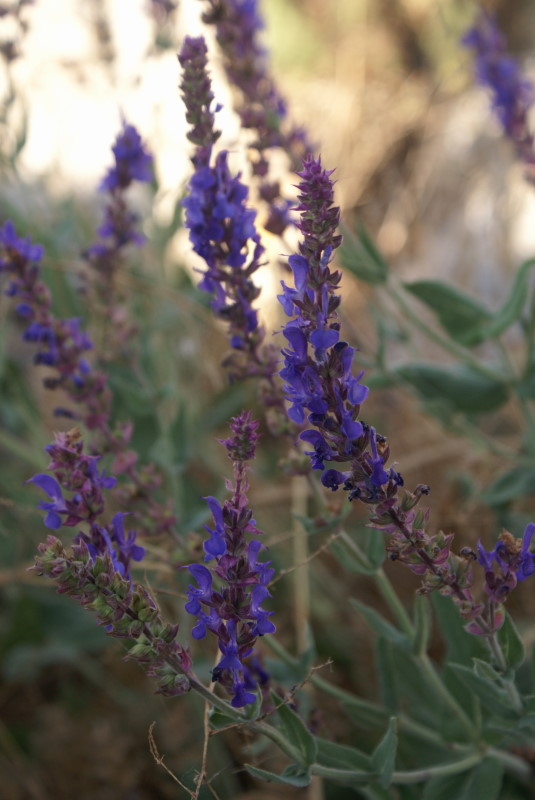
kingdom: Plantae
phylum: Tracheophyta
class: Magnoliopsida
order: Lamiales
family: Lamiaceae
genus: Salvia
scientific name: Salvia
